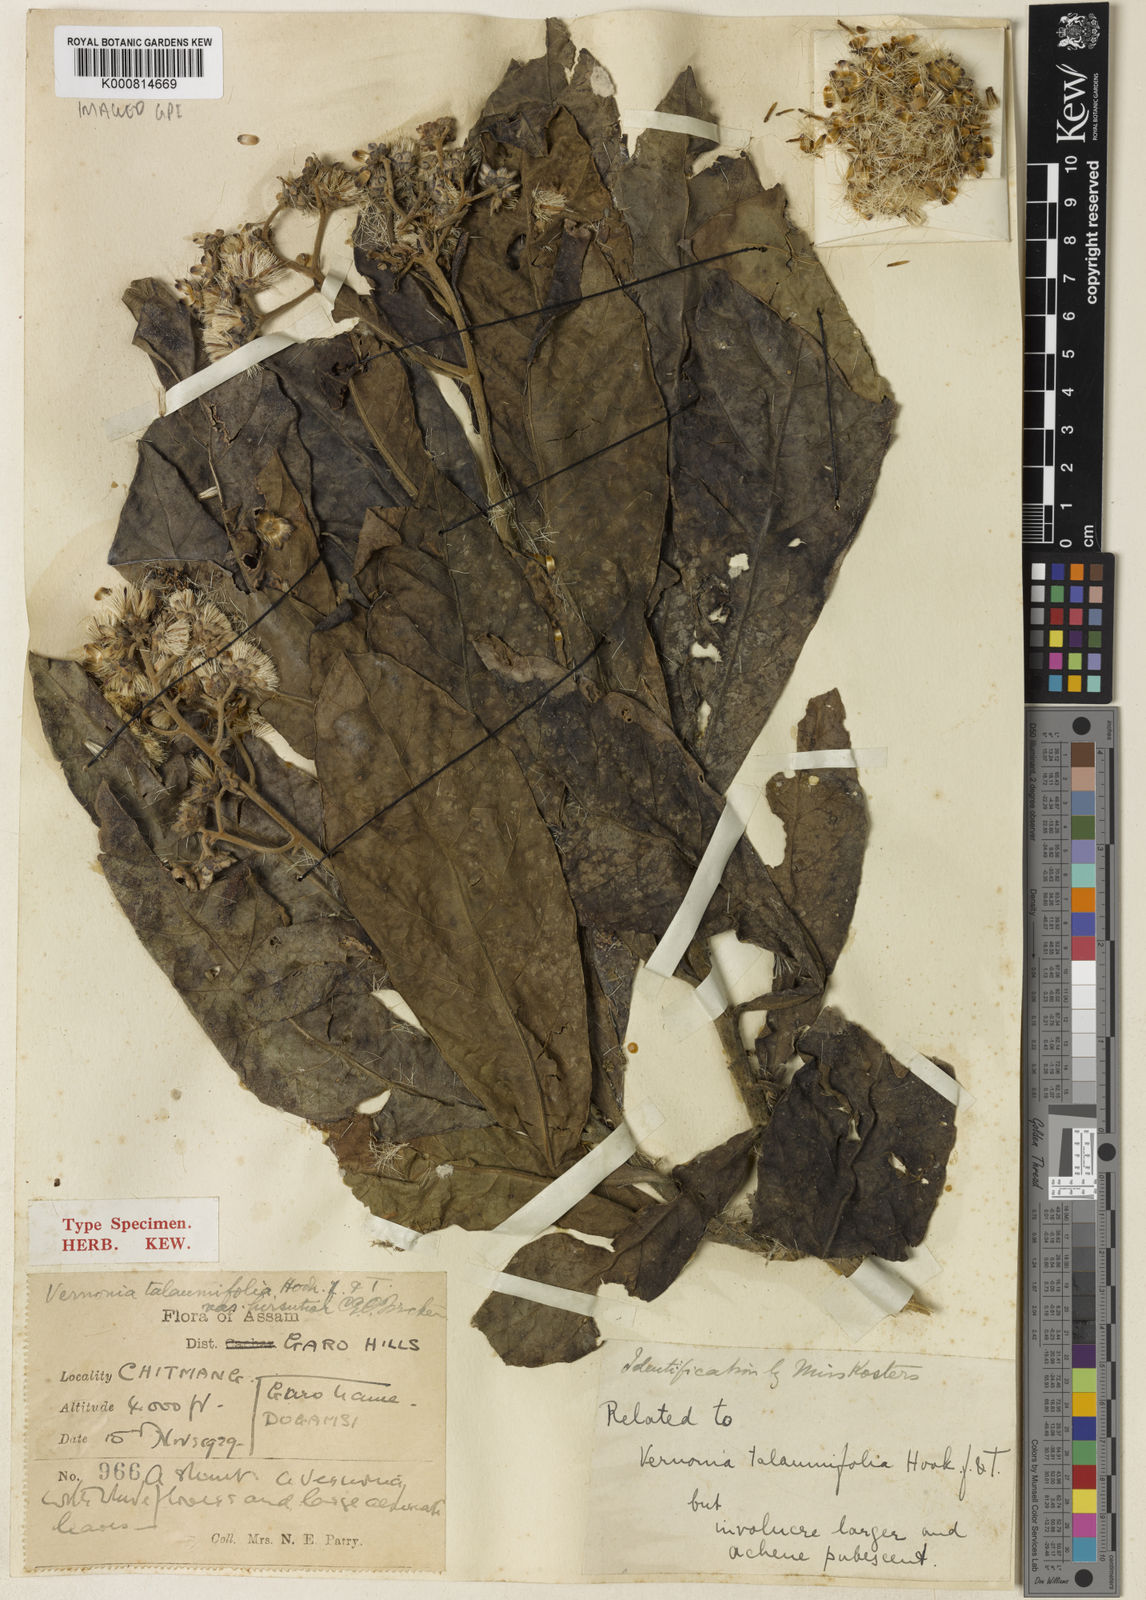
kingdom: Plantae
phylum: Tracheophyta
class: Magnoliopsida
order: Asterales
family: Asteraceae
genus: Monosis
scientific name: Monosis talaumifolia
